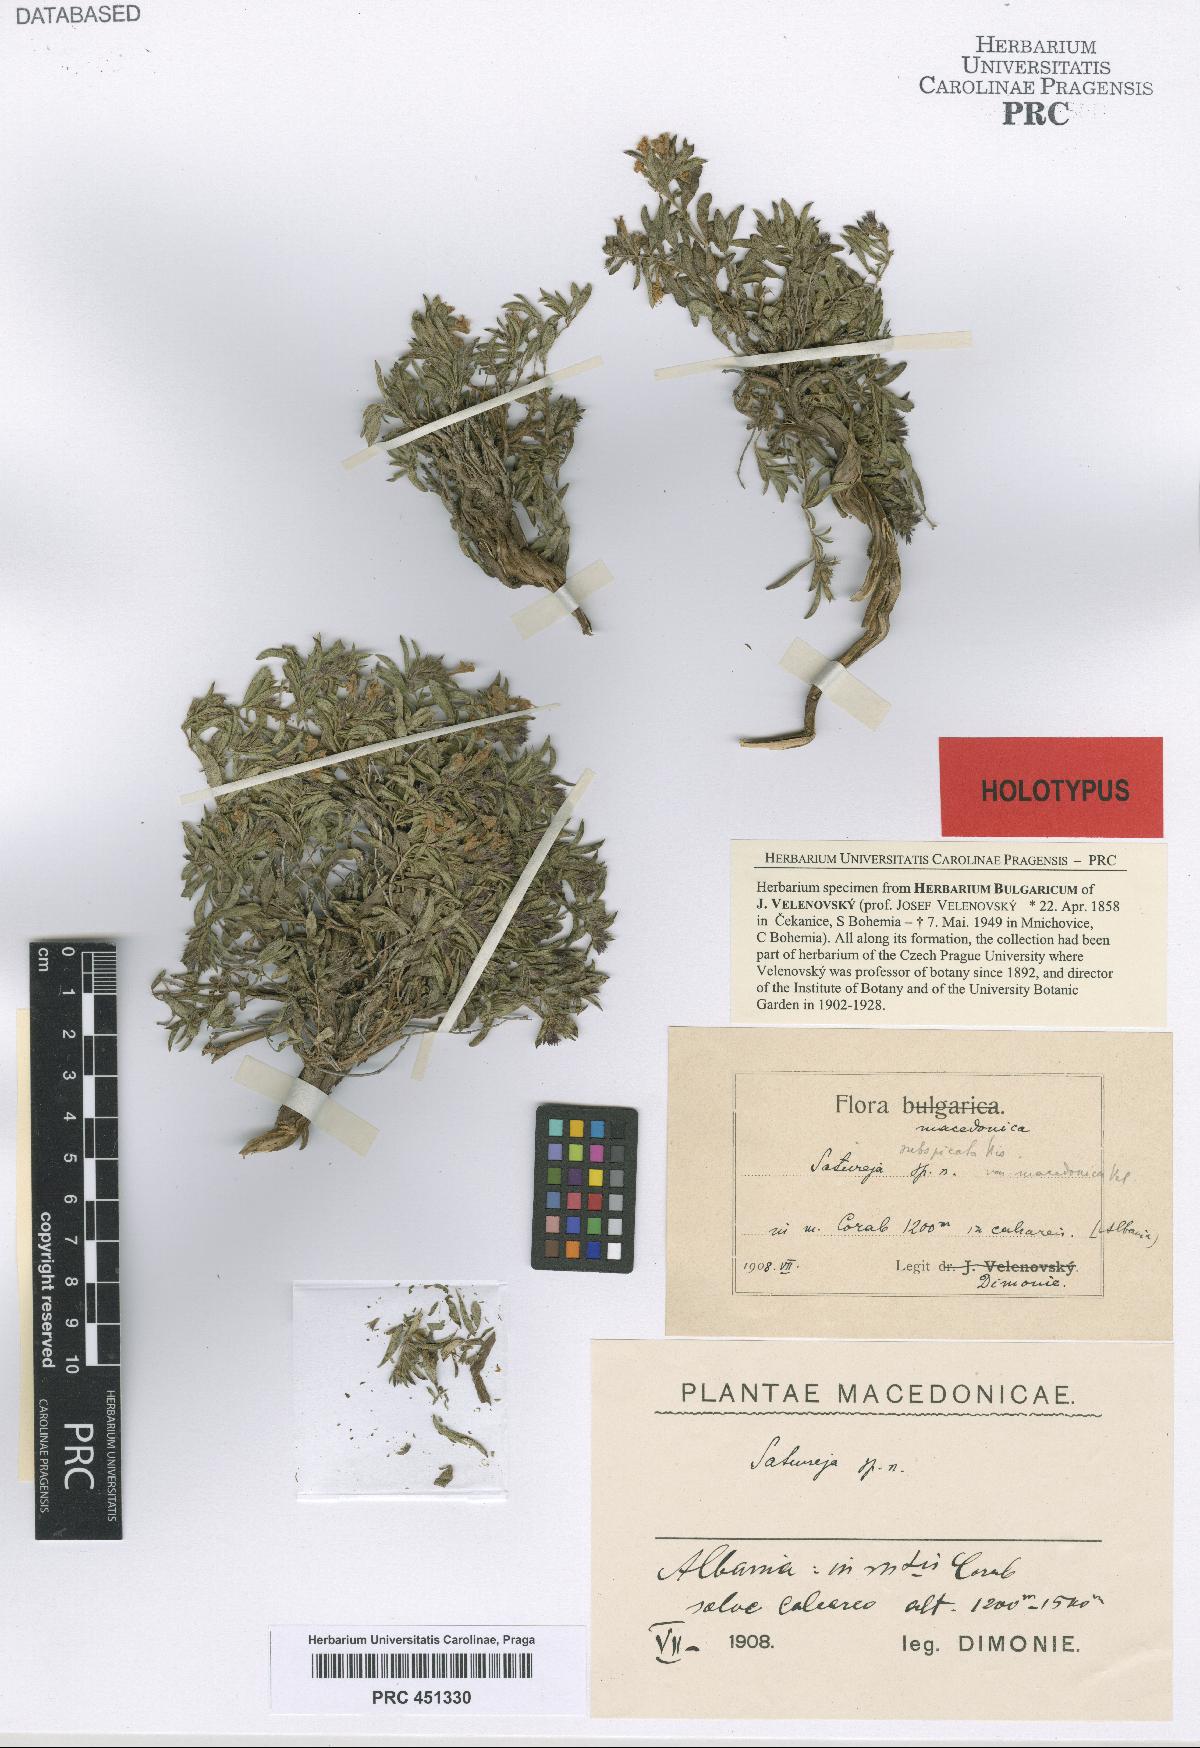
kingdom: Plantae
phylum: Tracheophyta
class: Magnoliopsida
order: Lamiales
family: Lamiaceae
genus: Satureja
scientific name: Satureja subspicata
